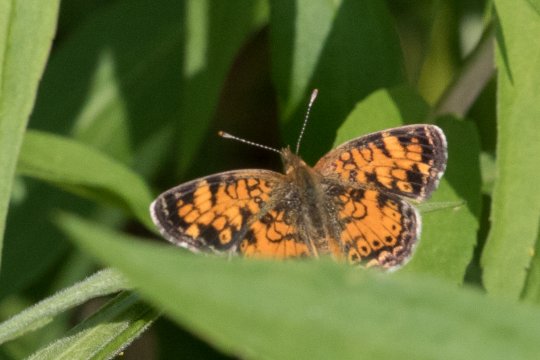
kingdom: Animalia
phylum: Arthropoda
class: Insecta
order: Lepidoptera
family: Nymphalidae
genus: Phyciodes
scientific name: Phyciodes
